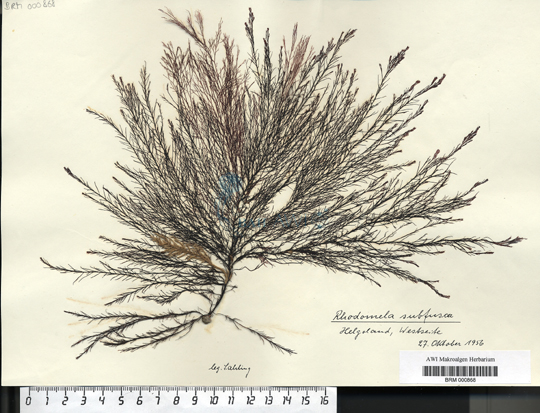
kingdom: Plantae
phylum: Rhodophyta
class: Florideophyceae
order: Ceramiales
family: Rhodomelaceae
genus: Rhodomela
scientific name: Rhodomela confervoides
